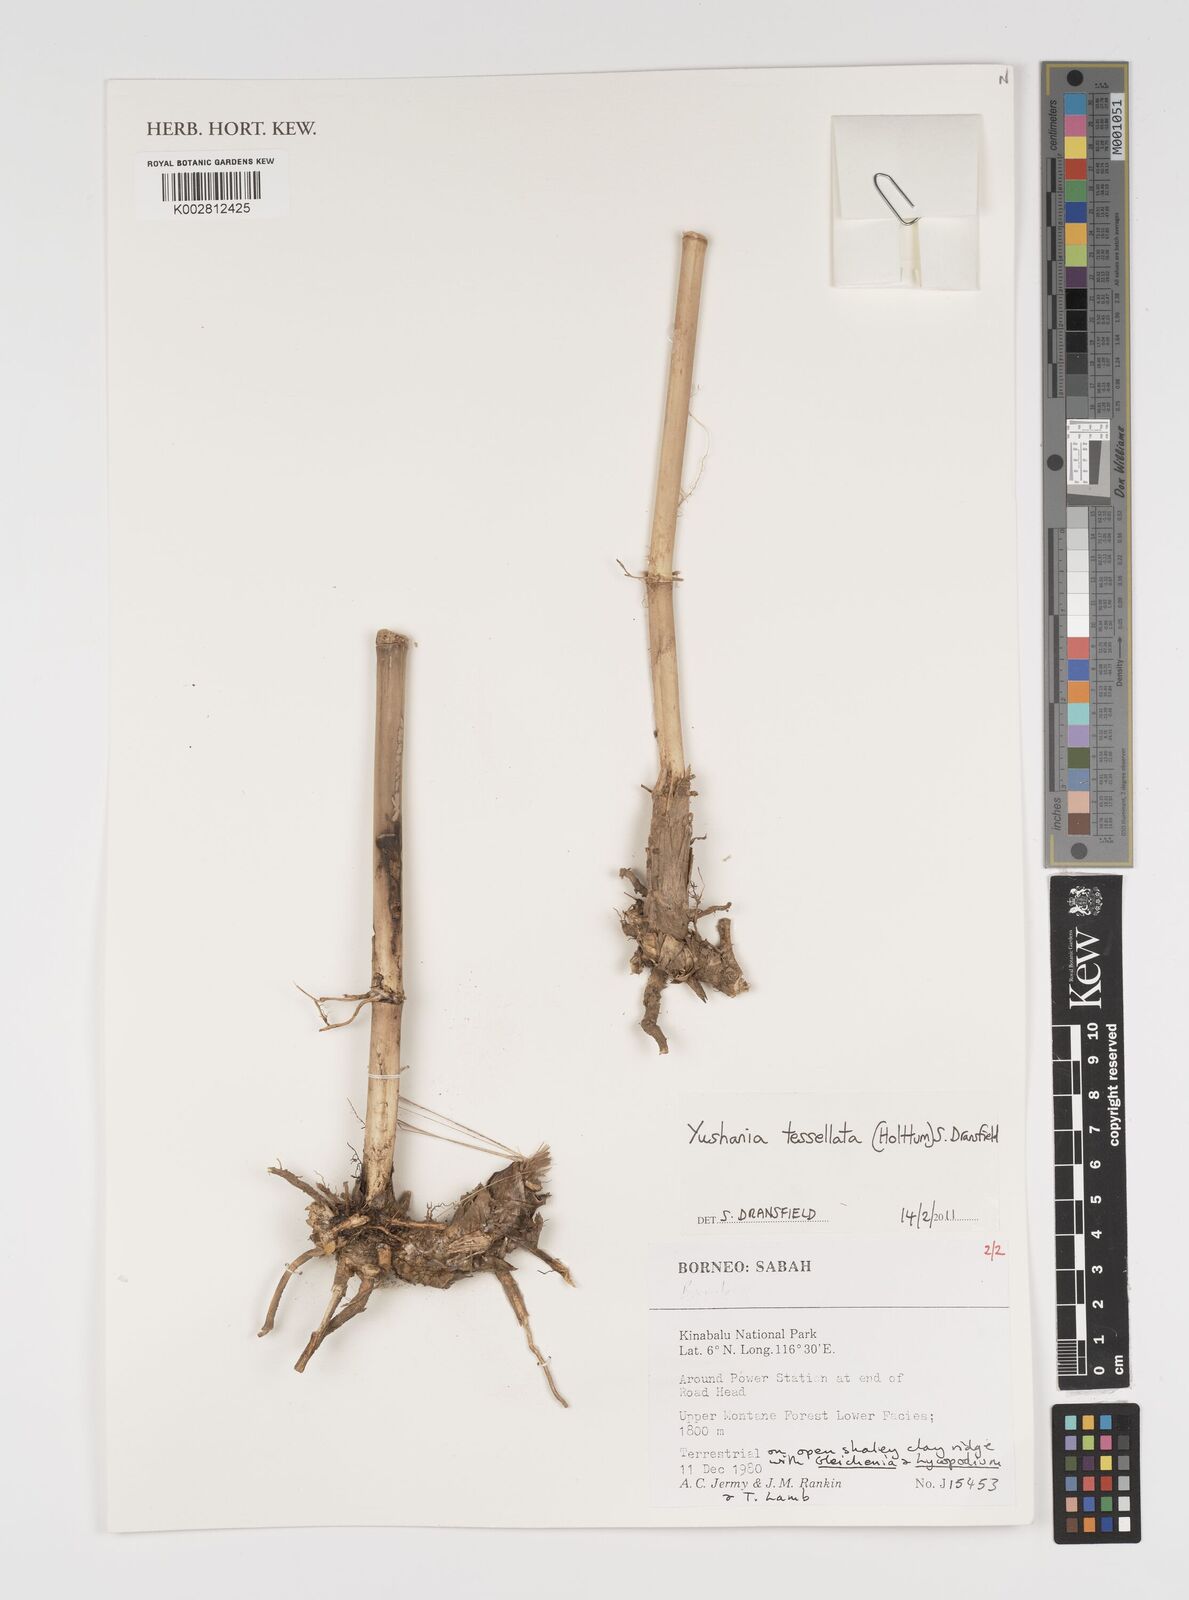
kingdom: Plantae
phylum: Tracheophyta
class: Liliopsida
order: Poales
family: Poaceae
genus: Yushania
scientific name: Yushania tessellata
